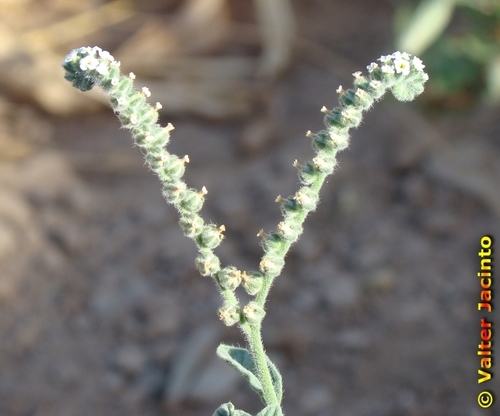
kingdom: Plantae
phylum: Tracheophyta
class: Magnoliopsida
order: Boraginales
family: Heliotropiaceae
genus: Heliotropium
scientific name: Heliotropium europaeum
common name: European heliotrope
